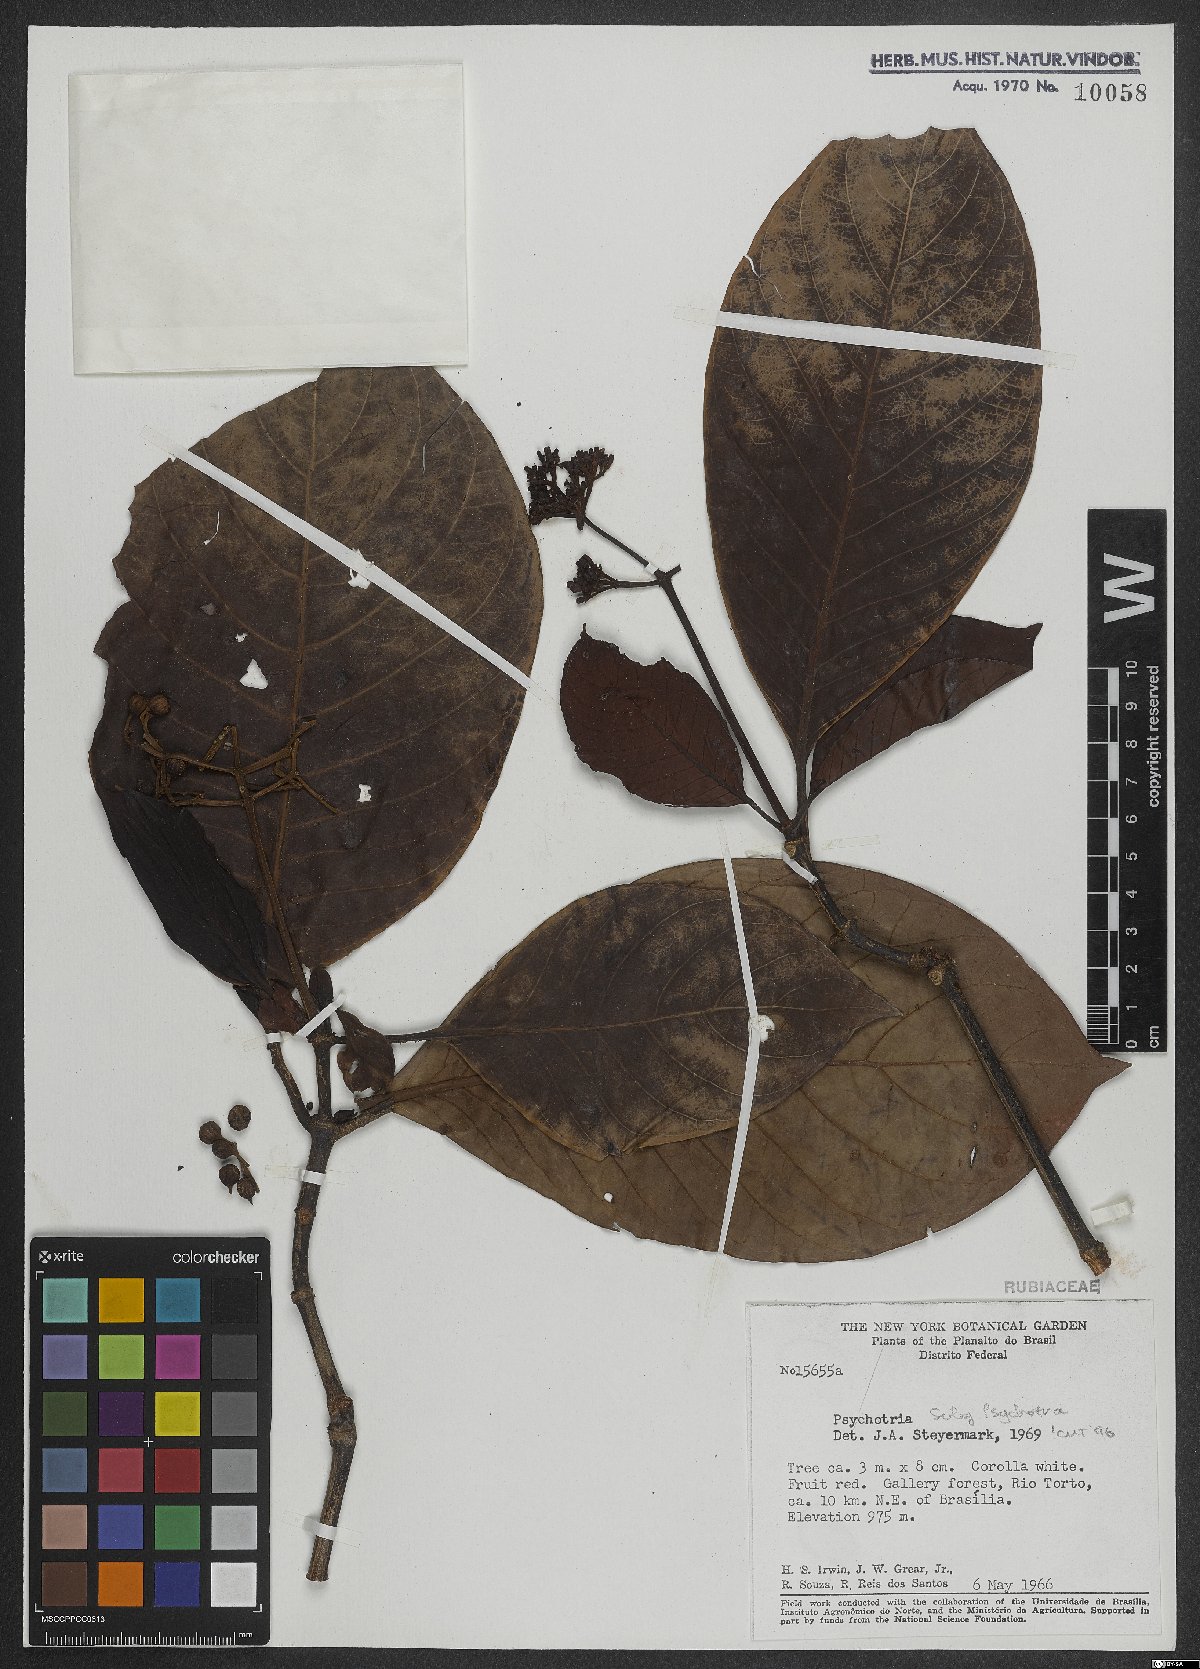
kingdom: Plantae
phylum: Tracheophyta
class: Magnoliopsida
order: Gentianales
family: Rubiaceae
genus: Psychotria
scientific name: Psychotria
